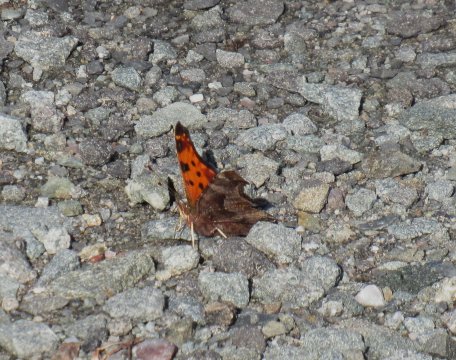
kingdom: Animalia
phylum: Arthropoda
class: Insecta
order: Lepidoptera
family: Nymphalidae
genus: Polygonia
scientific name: Polygonia comma
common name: Eastern Comma
